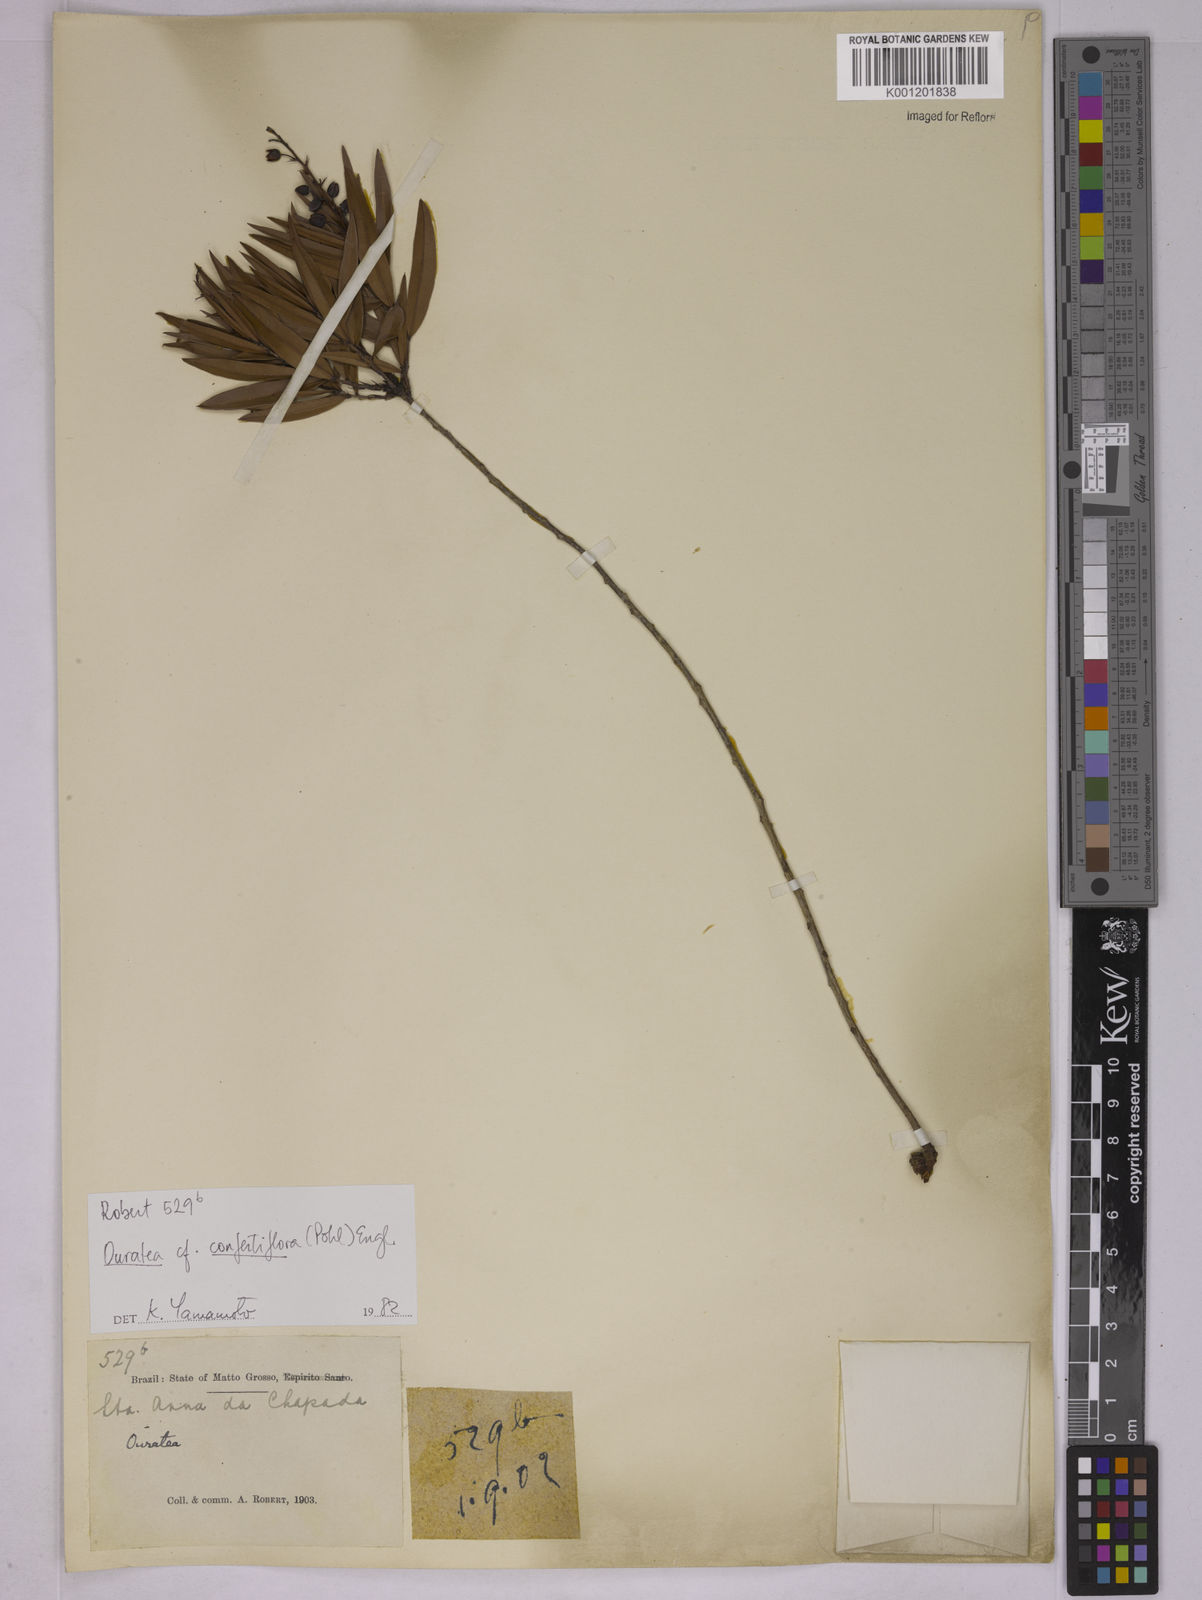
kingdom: Plantae
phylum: Tracheophyta
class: Magnoliopsida
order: Malpighiales
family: Ochnaceae
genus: Ouratea
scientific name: Ouratea confertiflora
